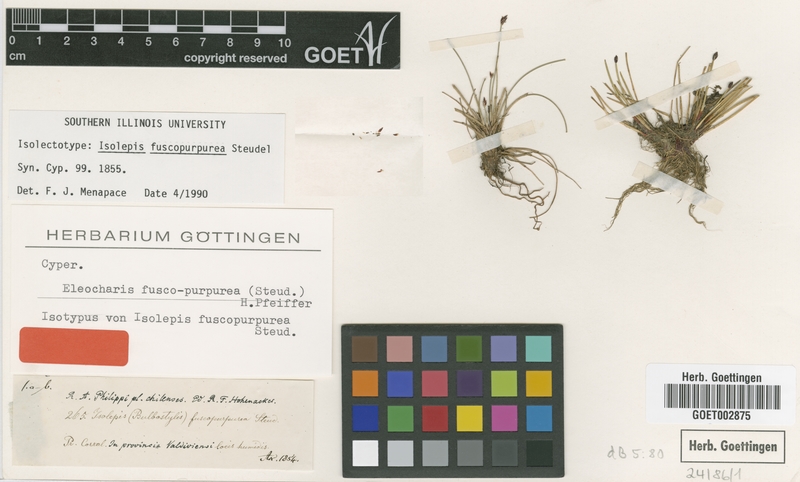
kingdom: Plantae
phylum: Tracheophyta
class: Liliopsida
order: Poales
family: Cyperaceae
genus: Eleocharis
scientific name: Eleocharis fuscopurpurea
